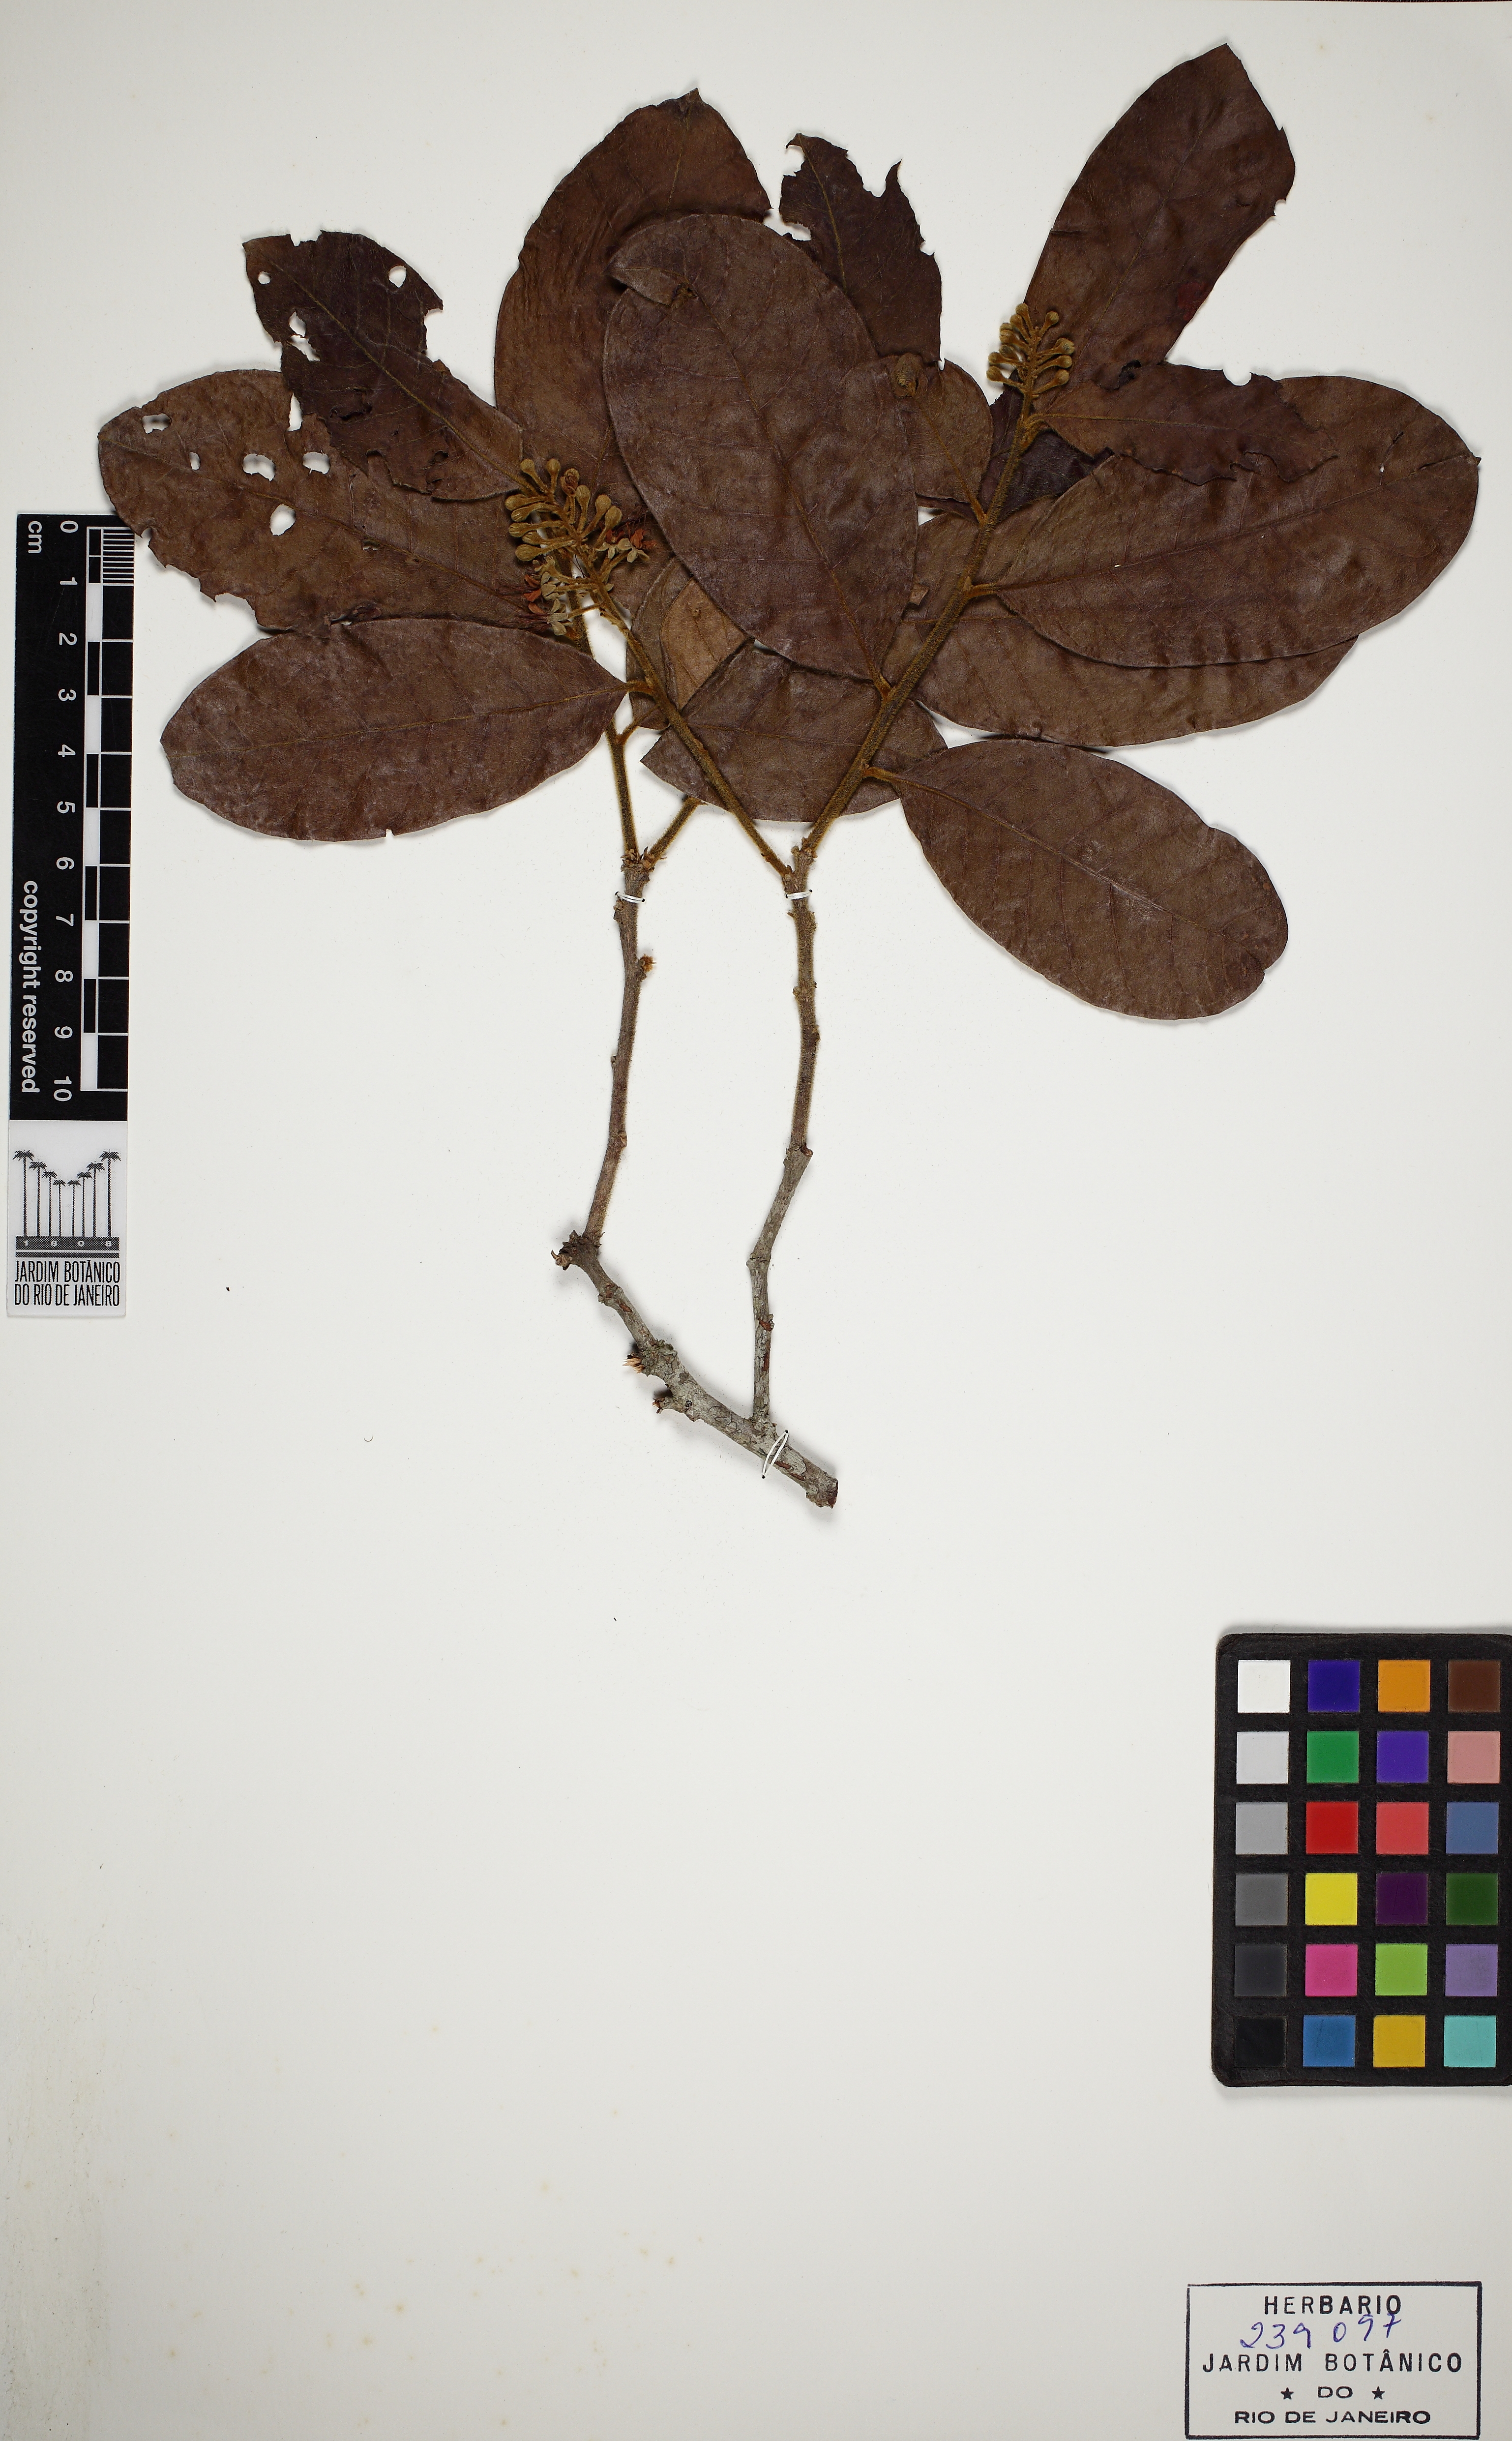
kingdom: Plantae
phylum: Tracheophyta
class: Magnoliopsida
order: Malpighiales
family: Chrysobalanaceae
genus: Hirtella
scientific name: Hirtella hebeclada
